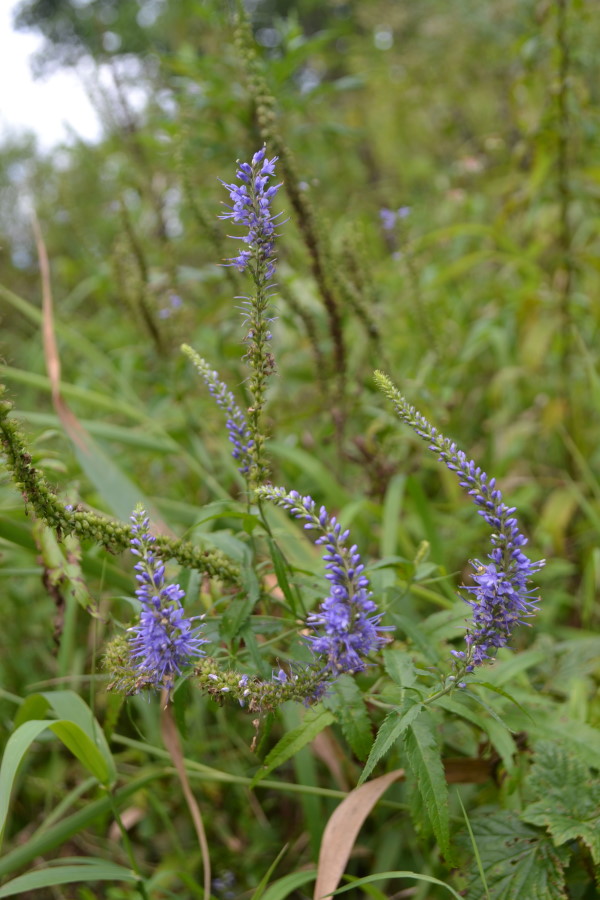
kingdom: Plantae
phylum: Tracheophyta
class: Magnoliopsida
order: Lamiales
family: Plantaginaceae
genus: Veronica
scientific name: Veronica longifolia
